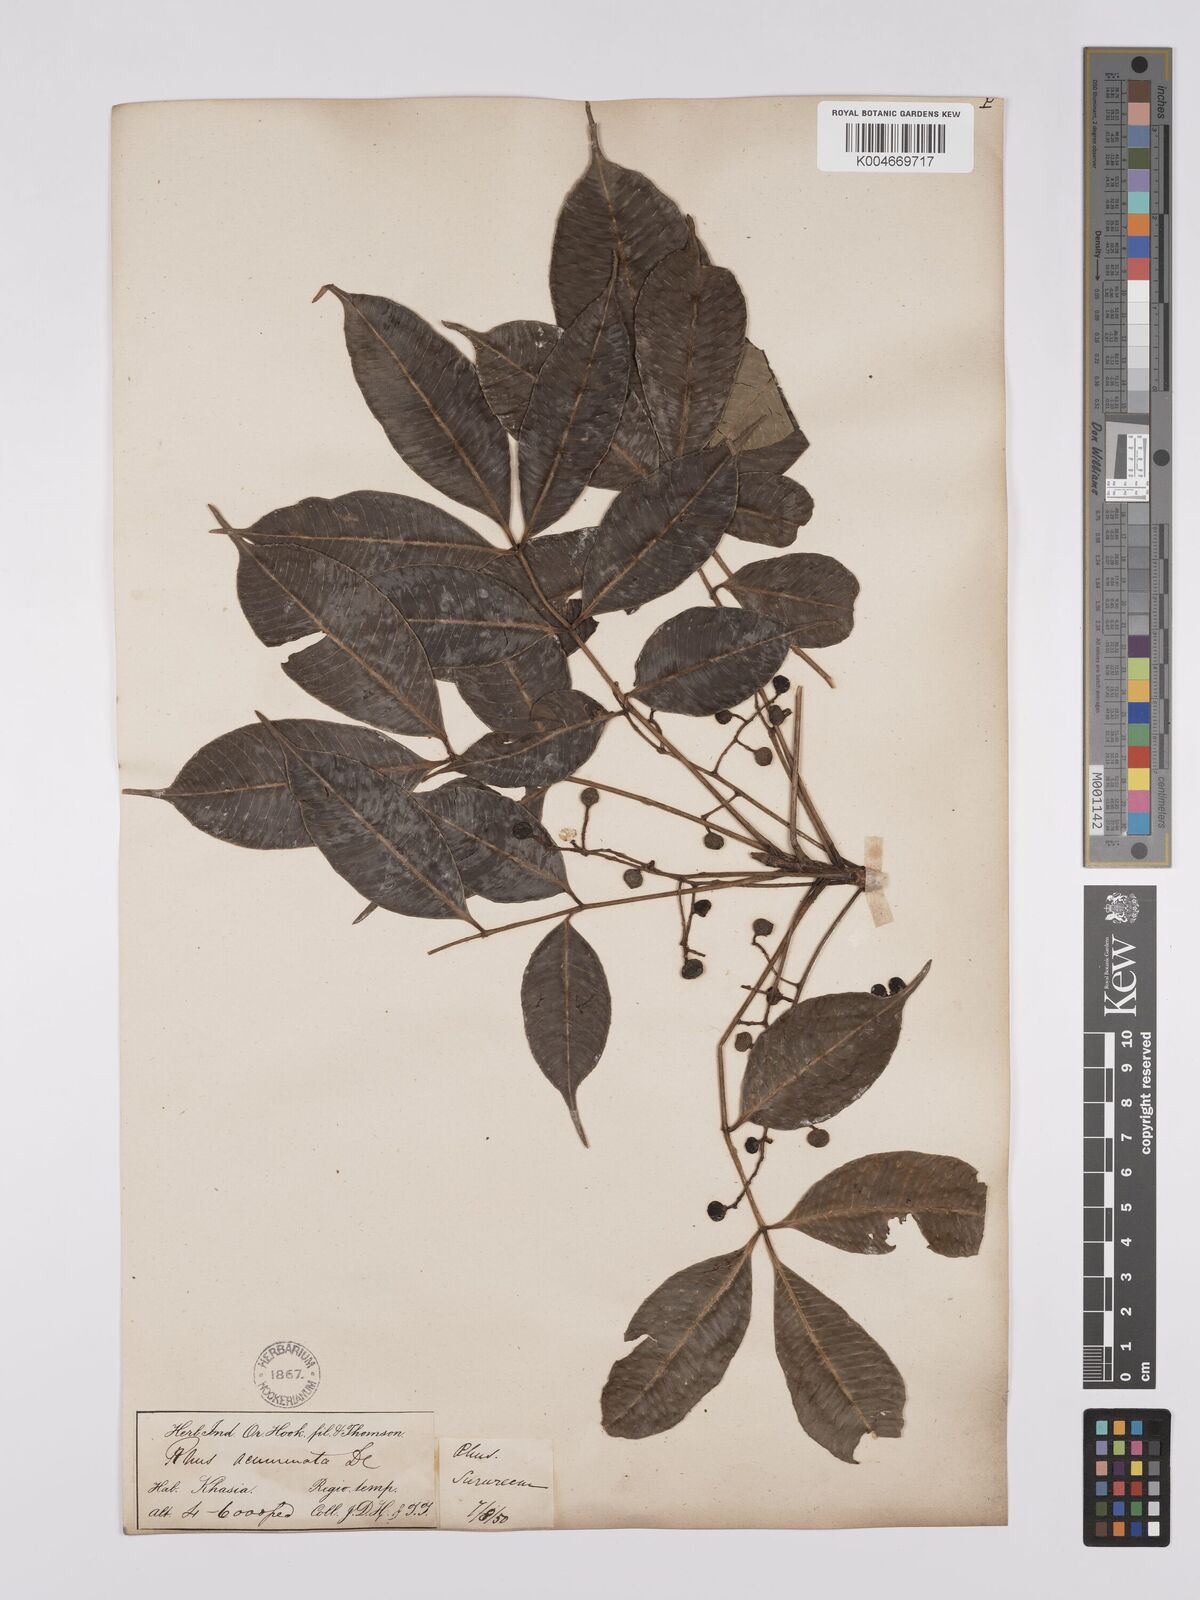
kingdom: Plantae
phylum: Tracheophyta
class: Magnoliopsida
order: Sapindales
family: Anacardiaceae
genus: Toxicodendron
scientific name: Toxicodendron succedaneum
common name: Wax tree
